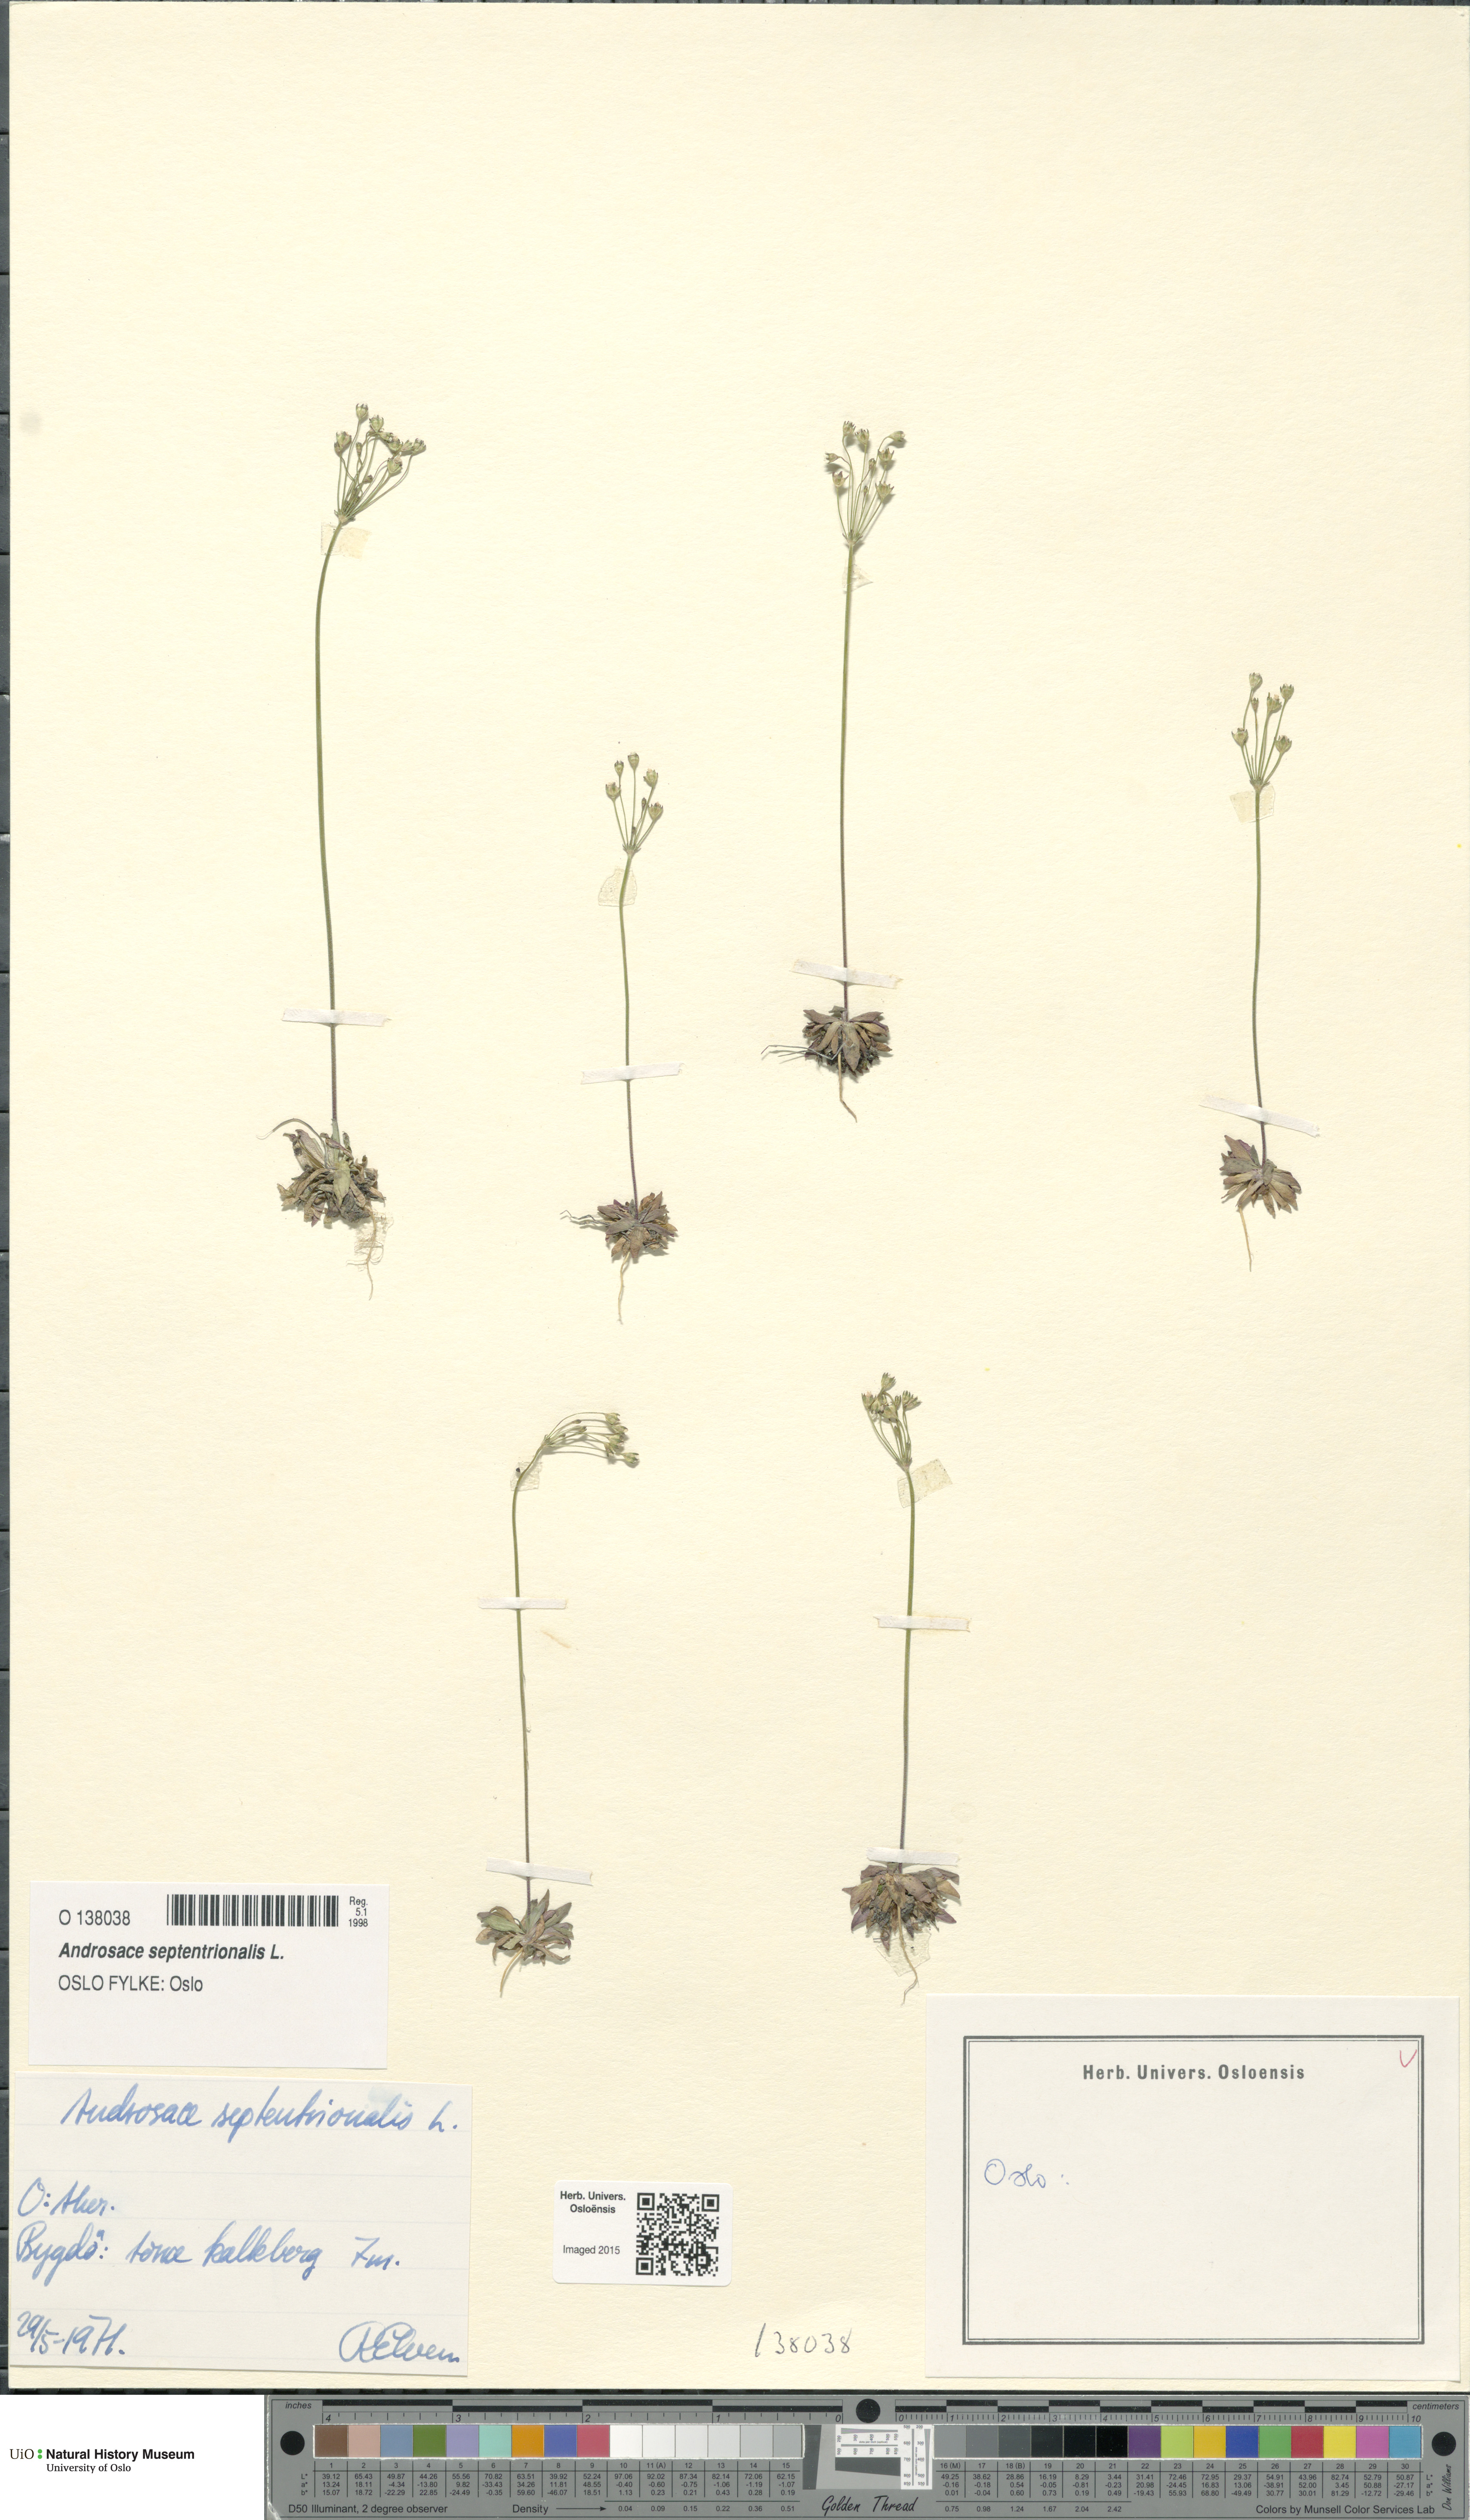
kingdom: Plantae
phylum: Tracheophyta
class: Magnoliopsida
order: Ericales
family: Primulaceae
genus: Androsace
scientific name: Androsace septentrionalis
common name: Hairy northern fairy-candelabra
